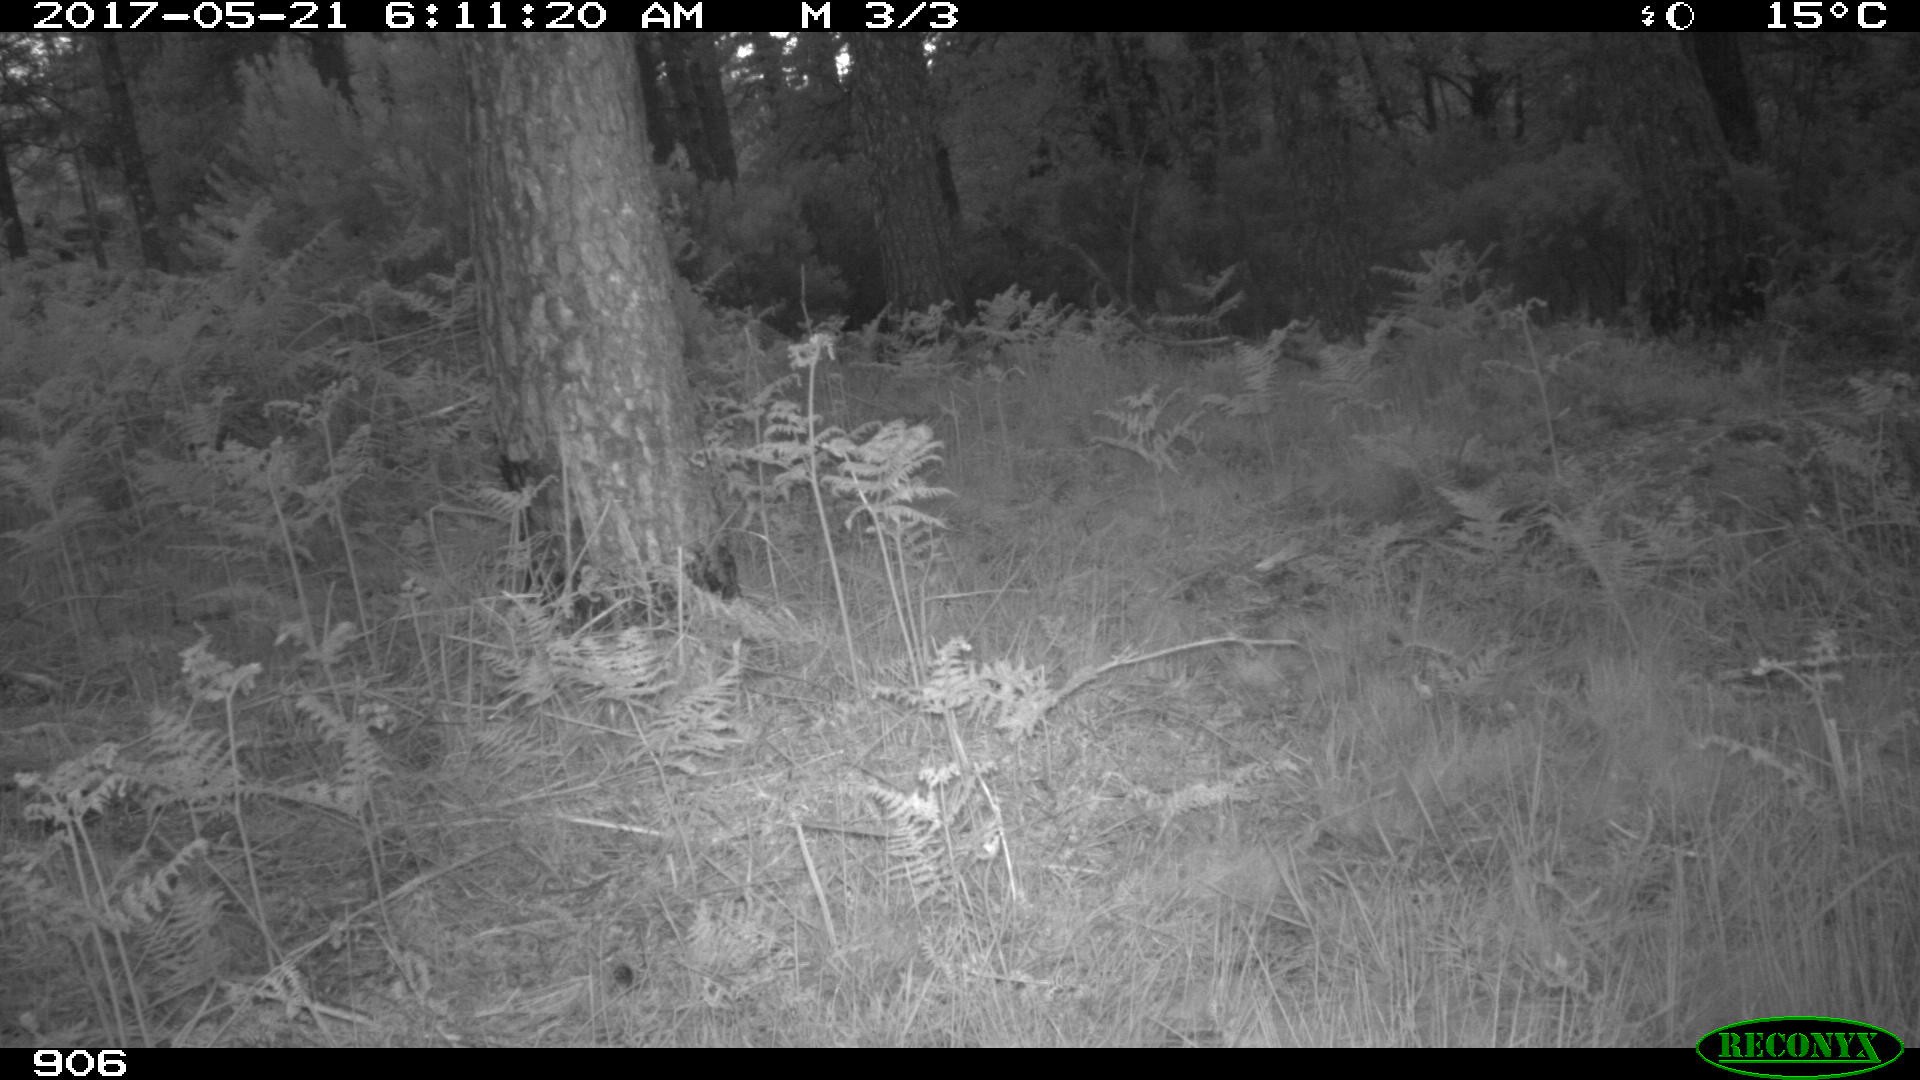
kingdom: Animalia
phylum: Chordata
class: Mammalia
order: Perissodactyla
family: Equidae
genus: Equus
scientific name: Equus caballus
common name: Horse
